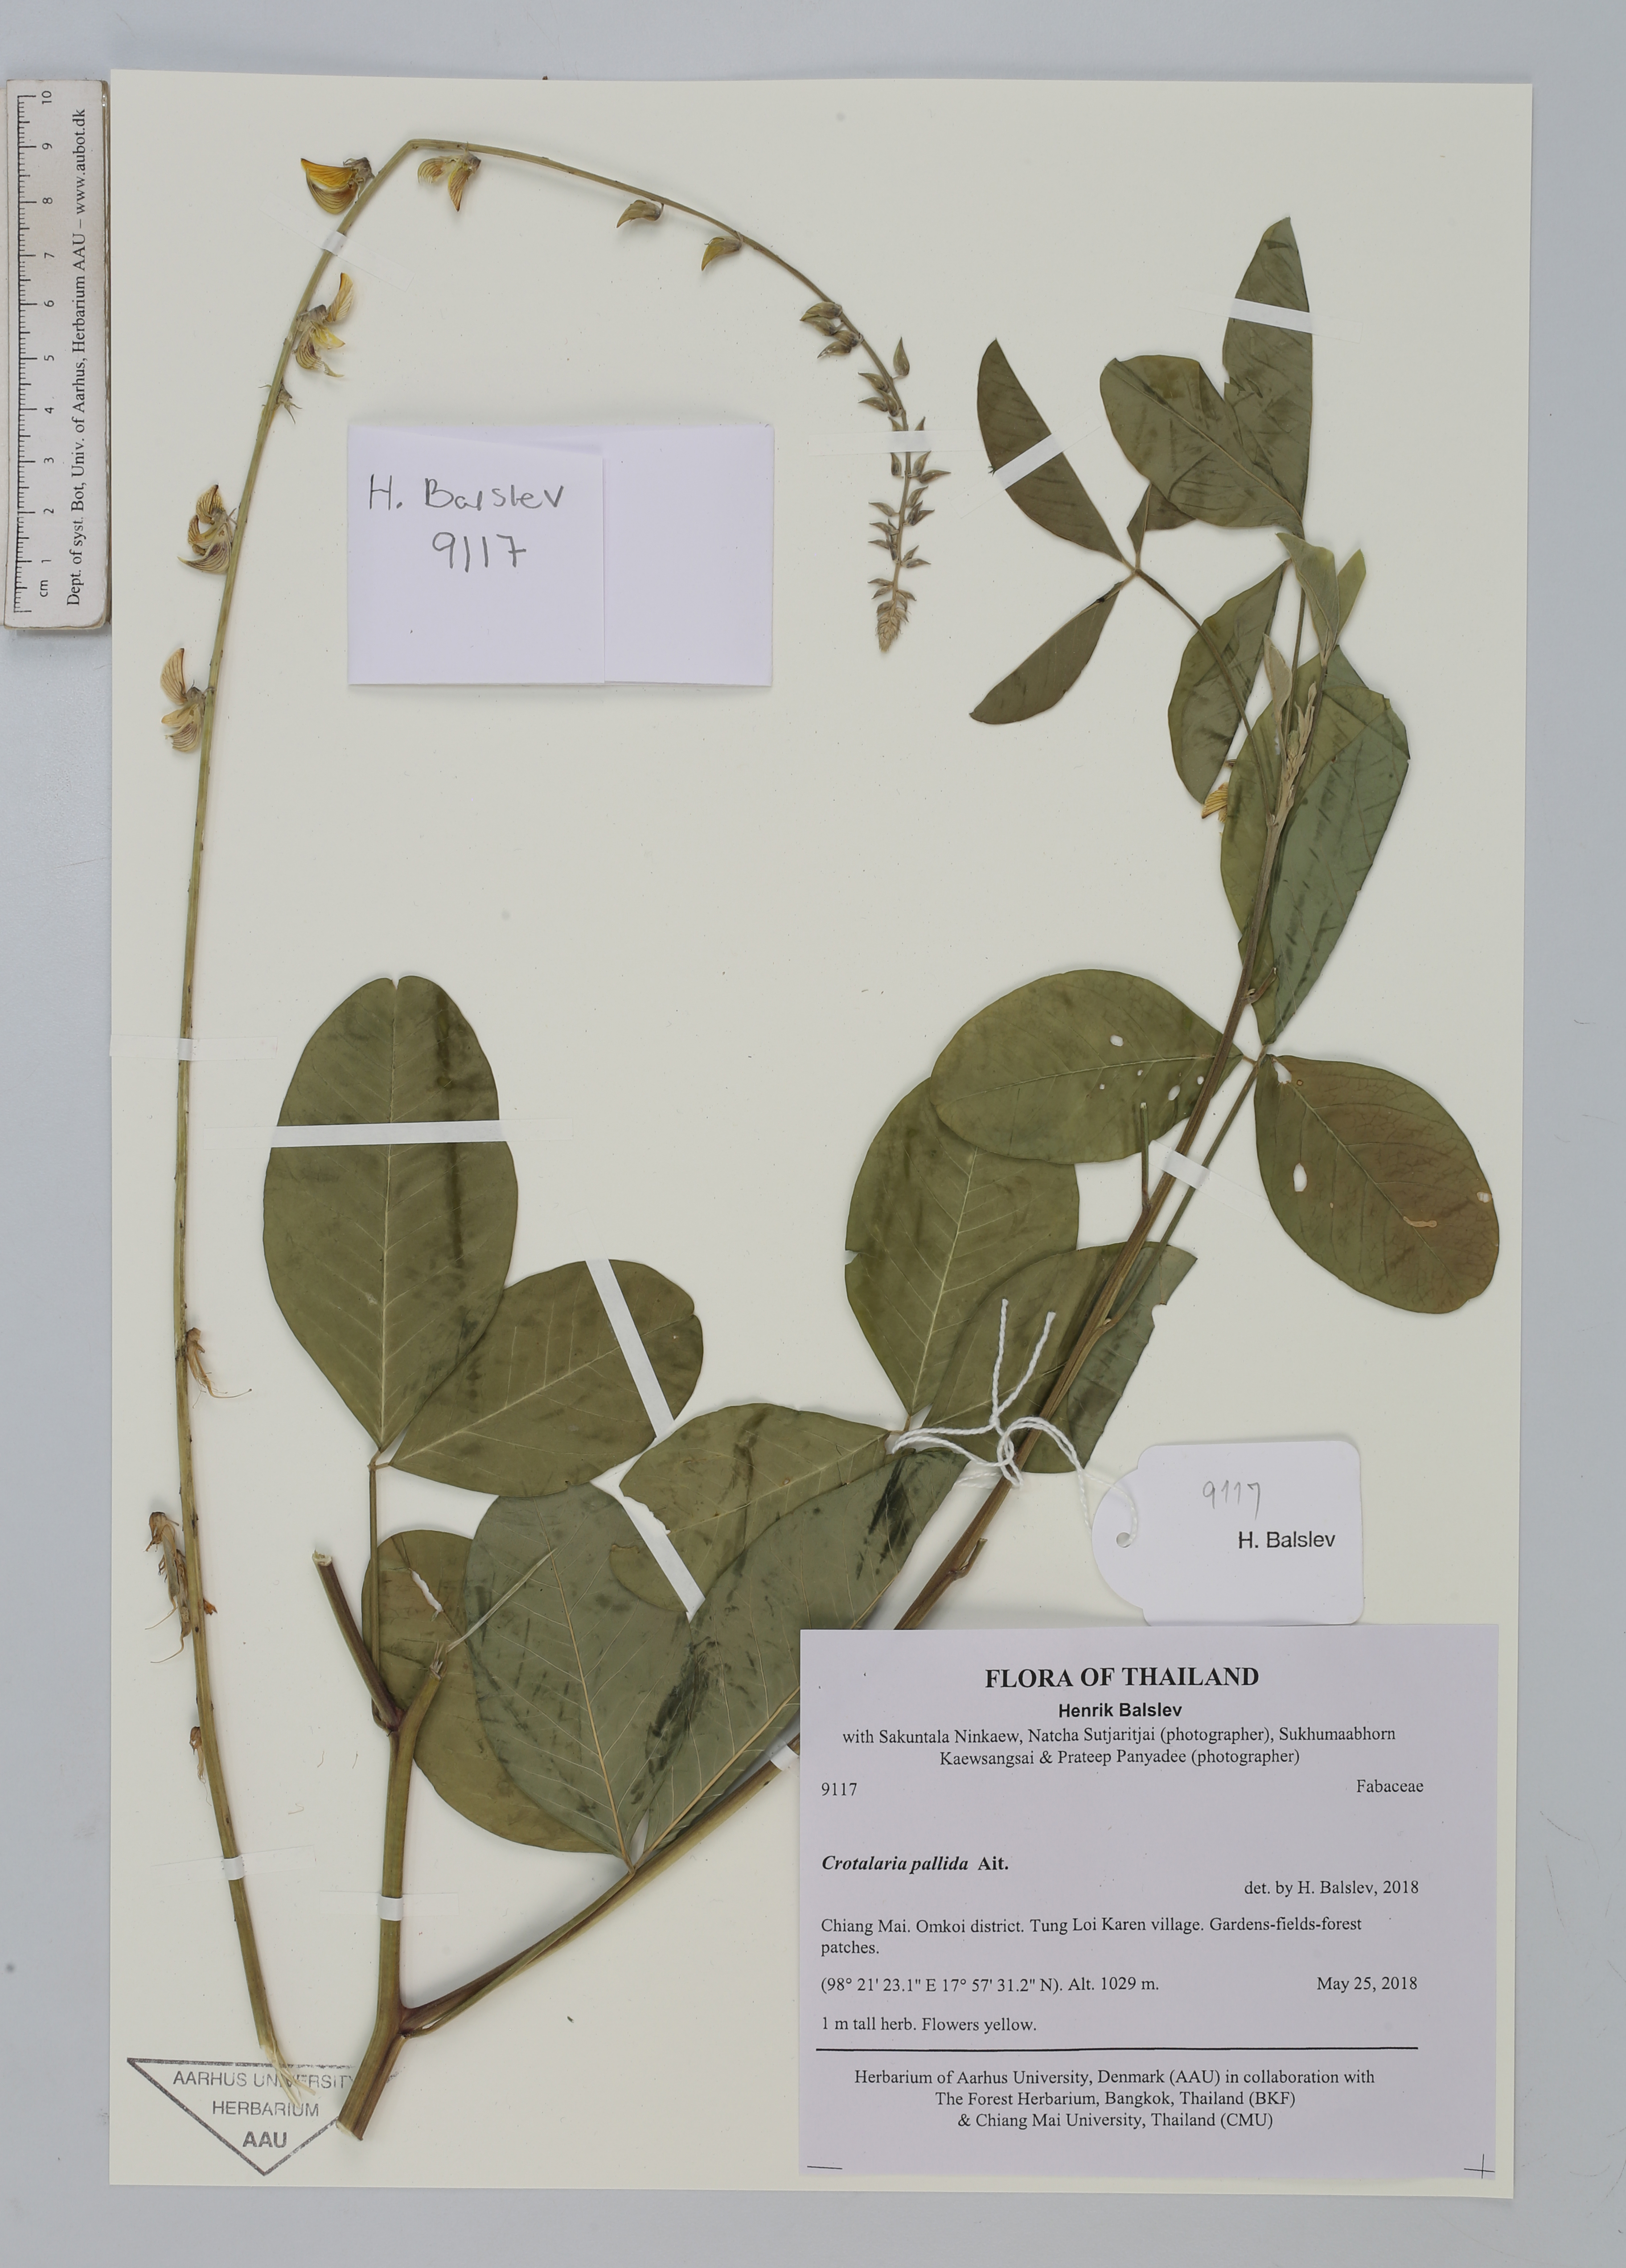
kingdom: Plantae
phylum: Tracheophyta
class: Magnoliopsida
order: Fabales
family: Fabaceae
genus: Crotalaria
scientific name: Crotalaria pallida
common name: Smooth rattlebox
